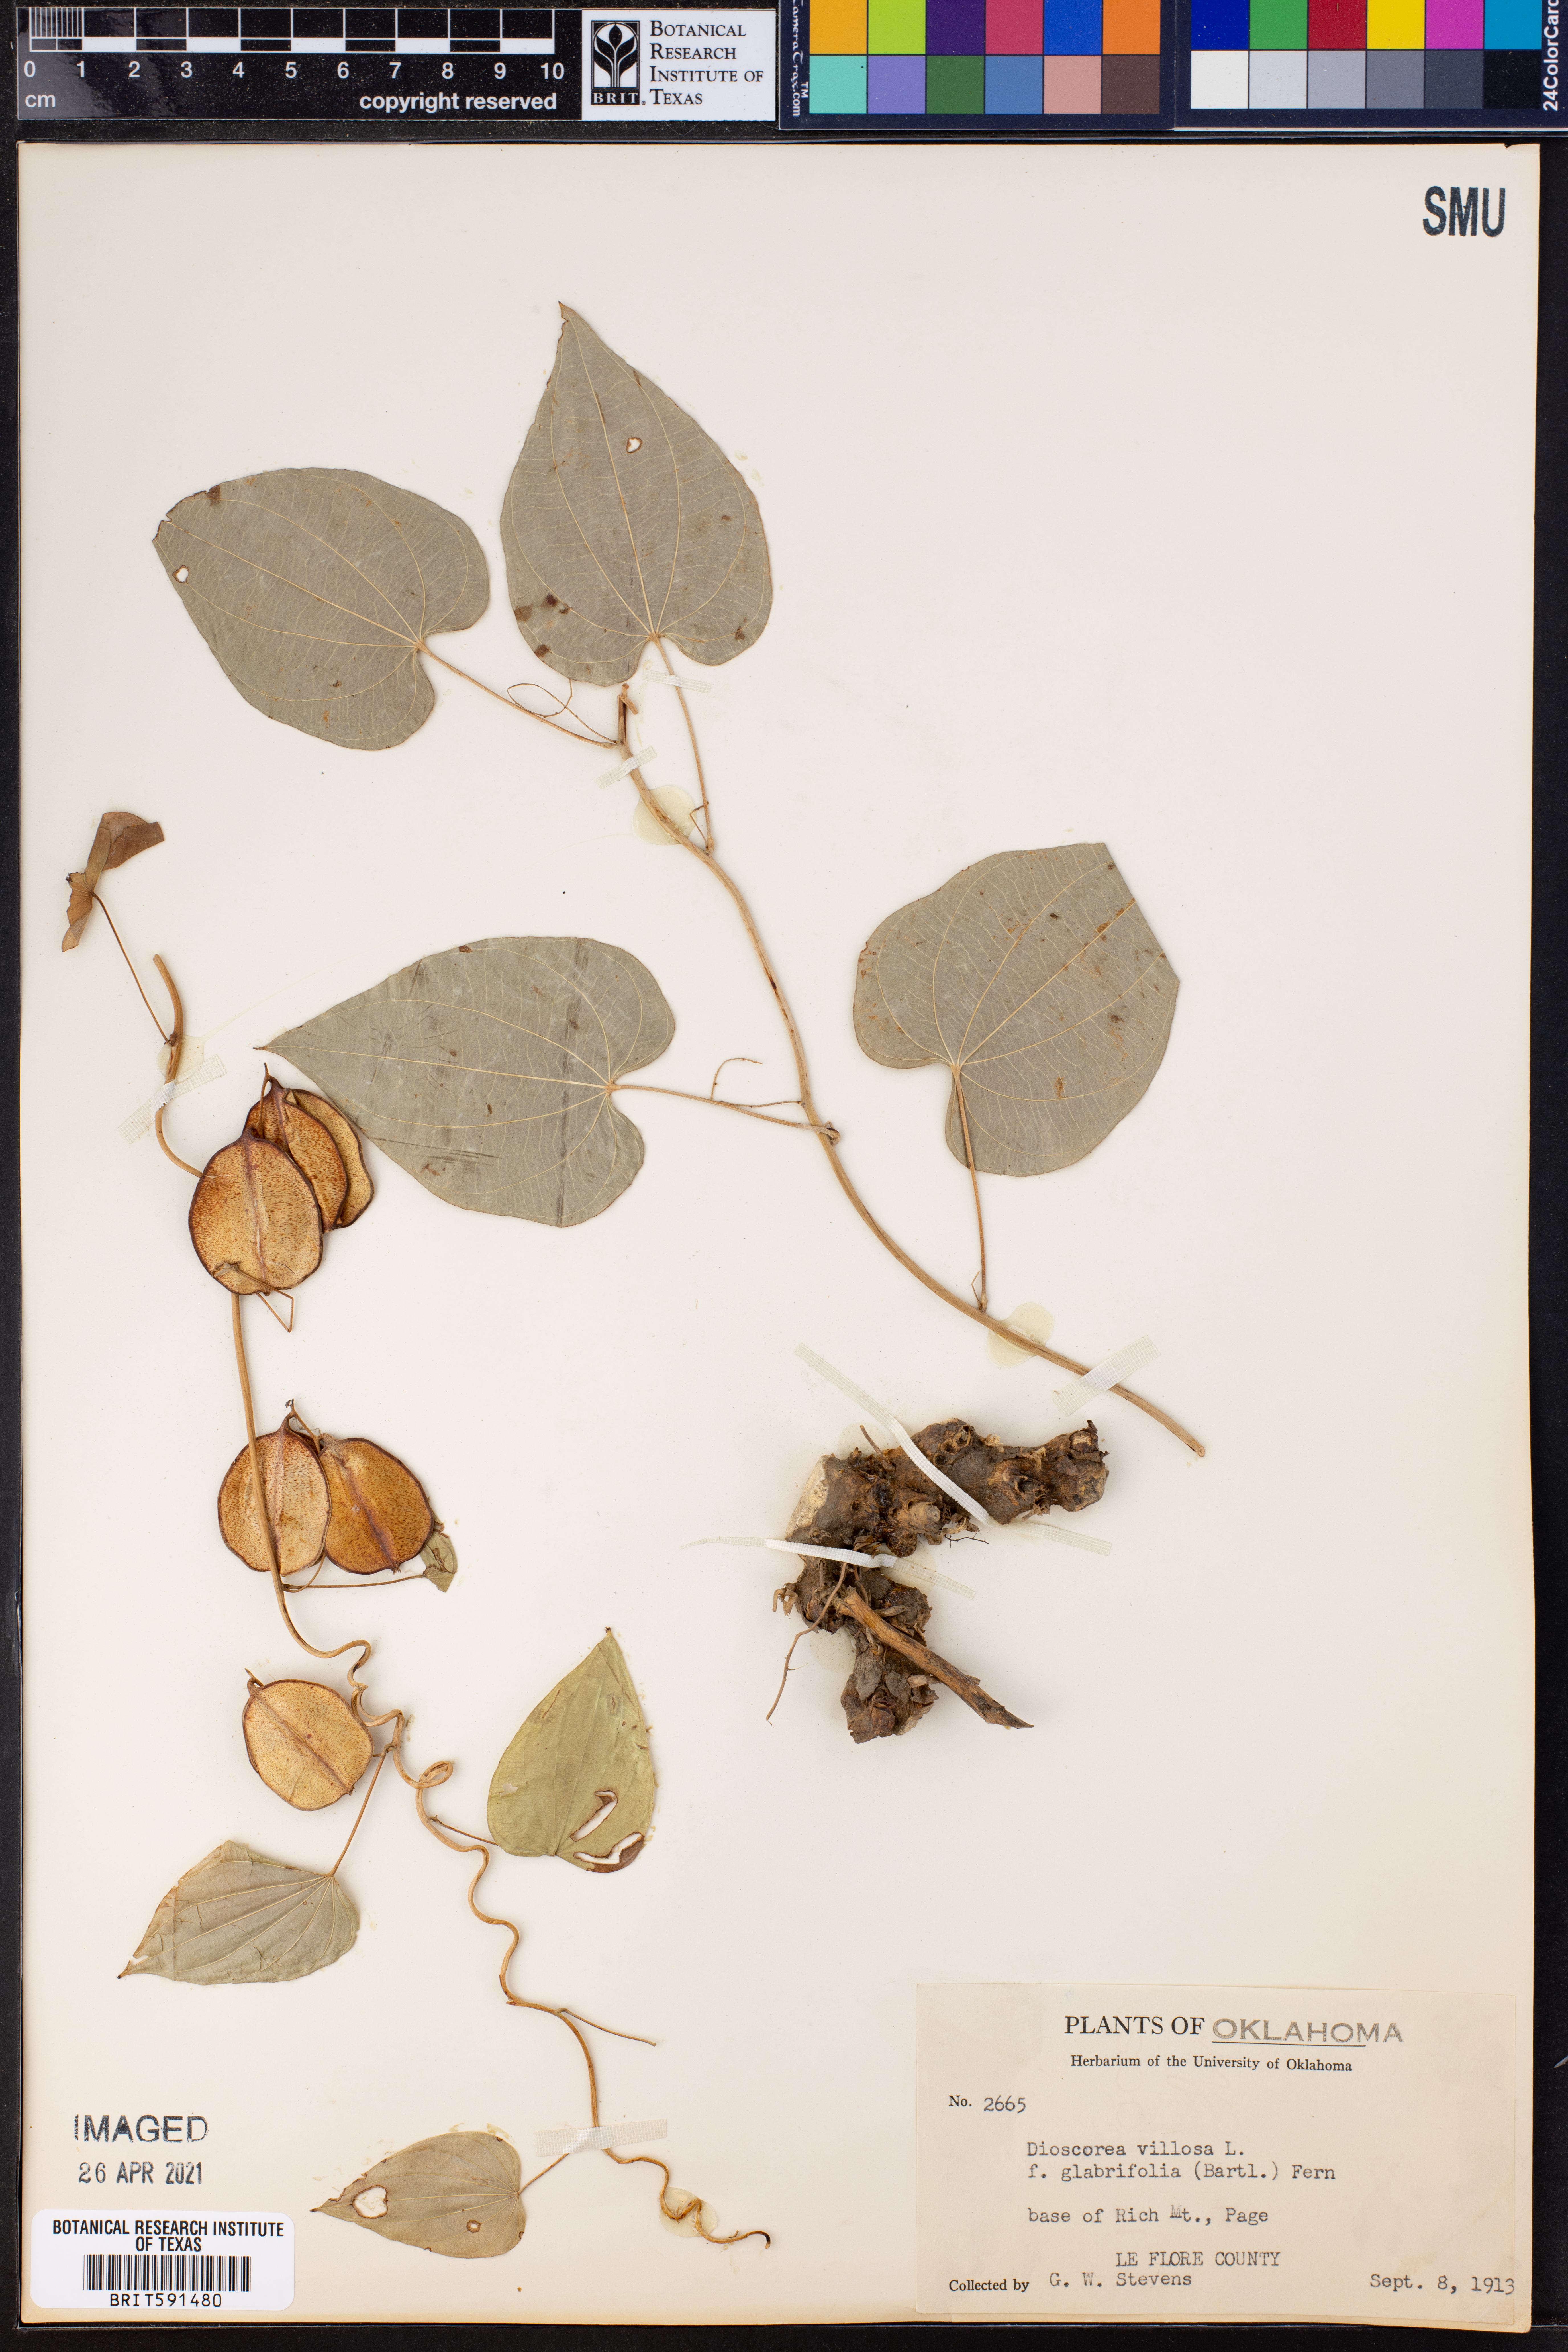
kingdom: Plantae
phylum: Tracheophyta
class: Liliopsida
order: Dioscoreales
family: Dioscoreaceae
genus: Dioscorea
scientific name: Dioscorea villosa
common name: Wild yam
